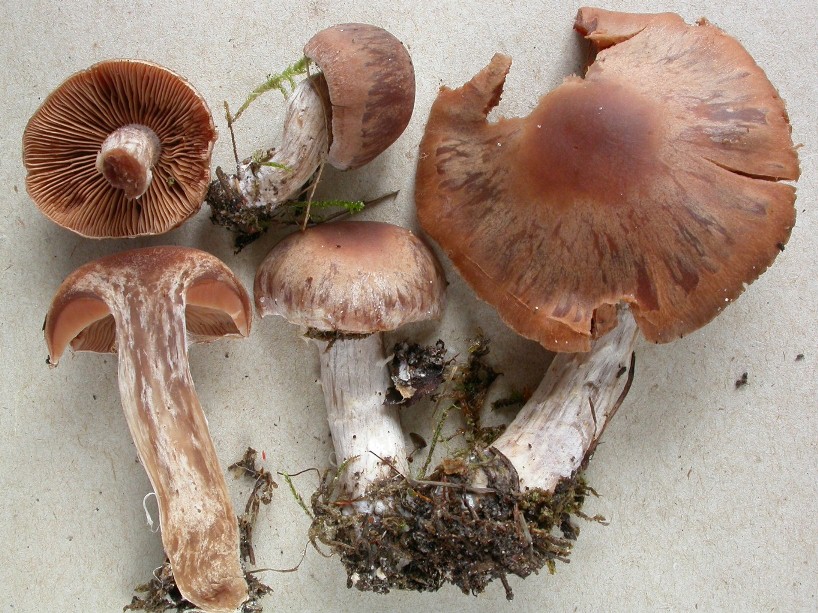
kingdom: Fungi
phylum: Basidiomycota
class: Agaricomycetes
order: Agaricales
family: Cortinariaceae
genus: Cortinarius
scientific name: Cortinarius biveloides
